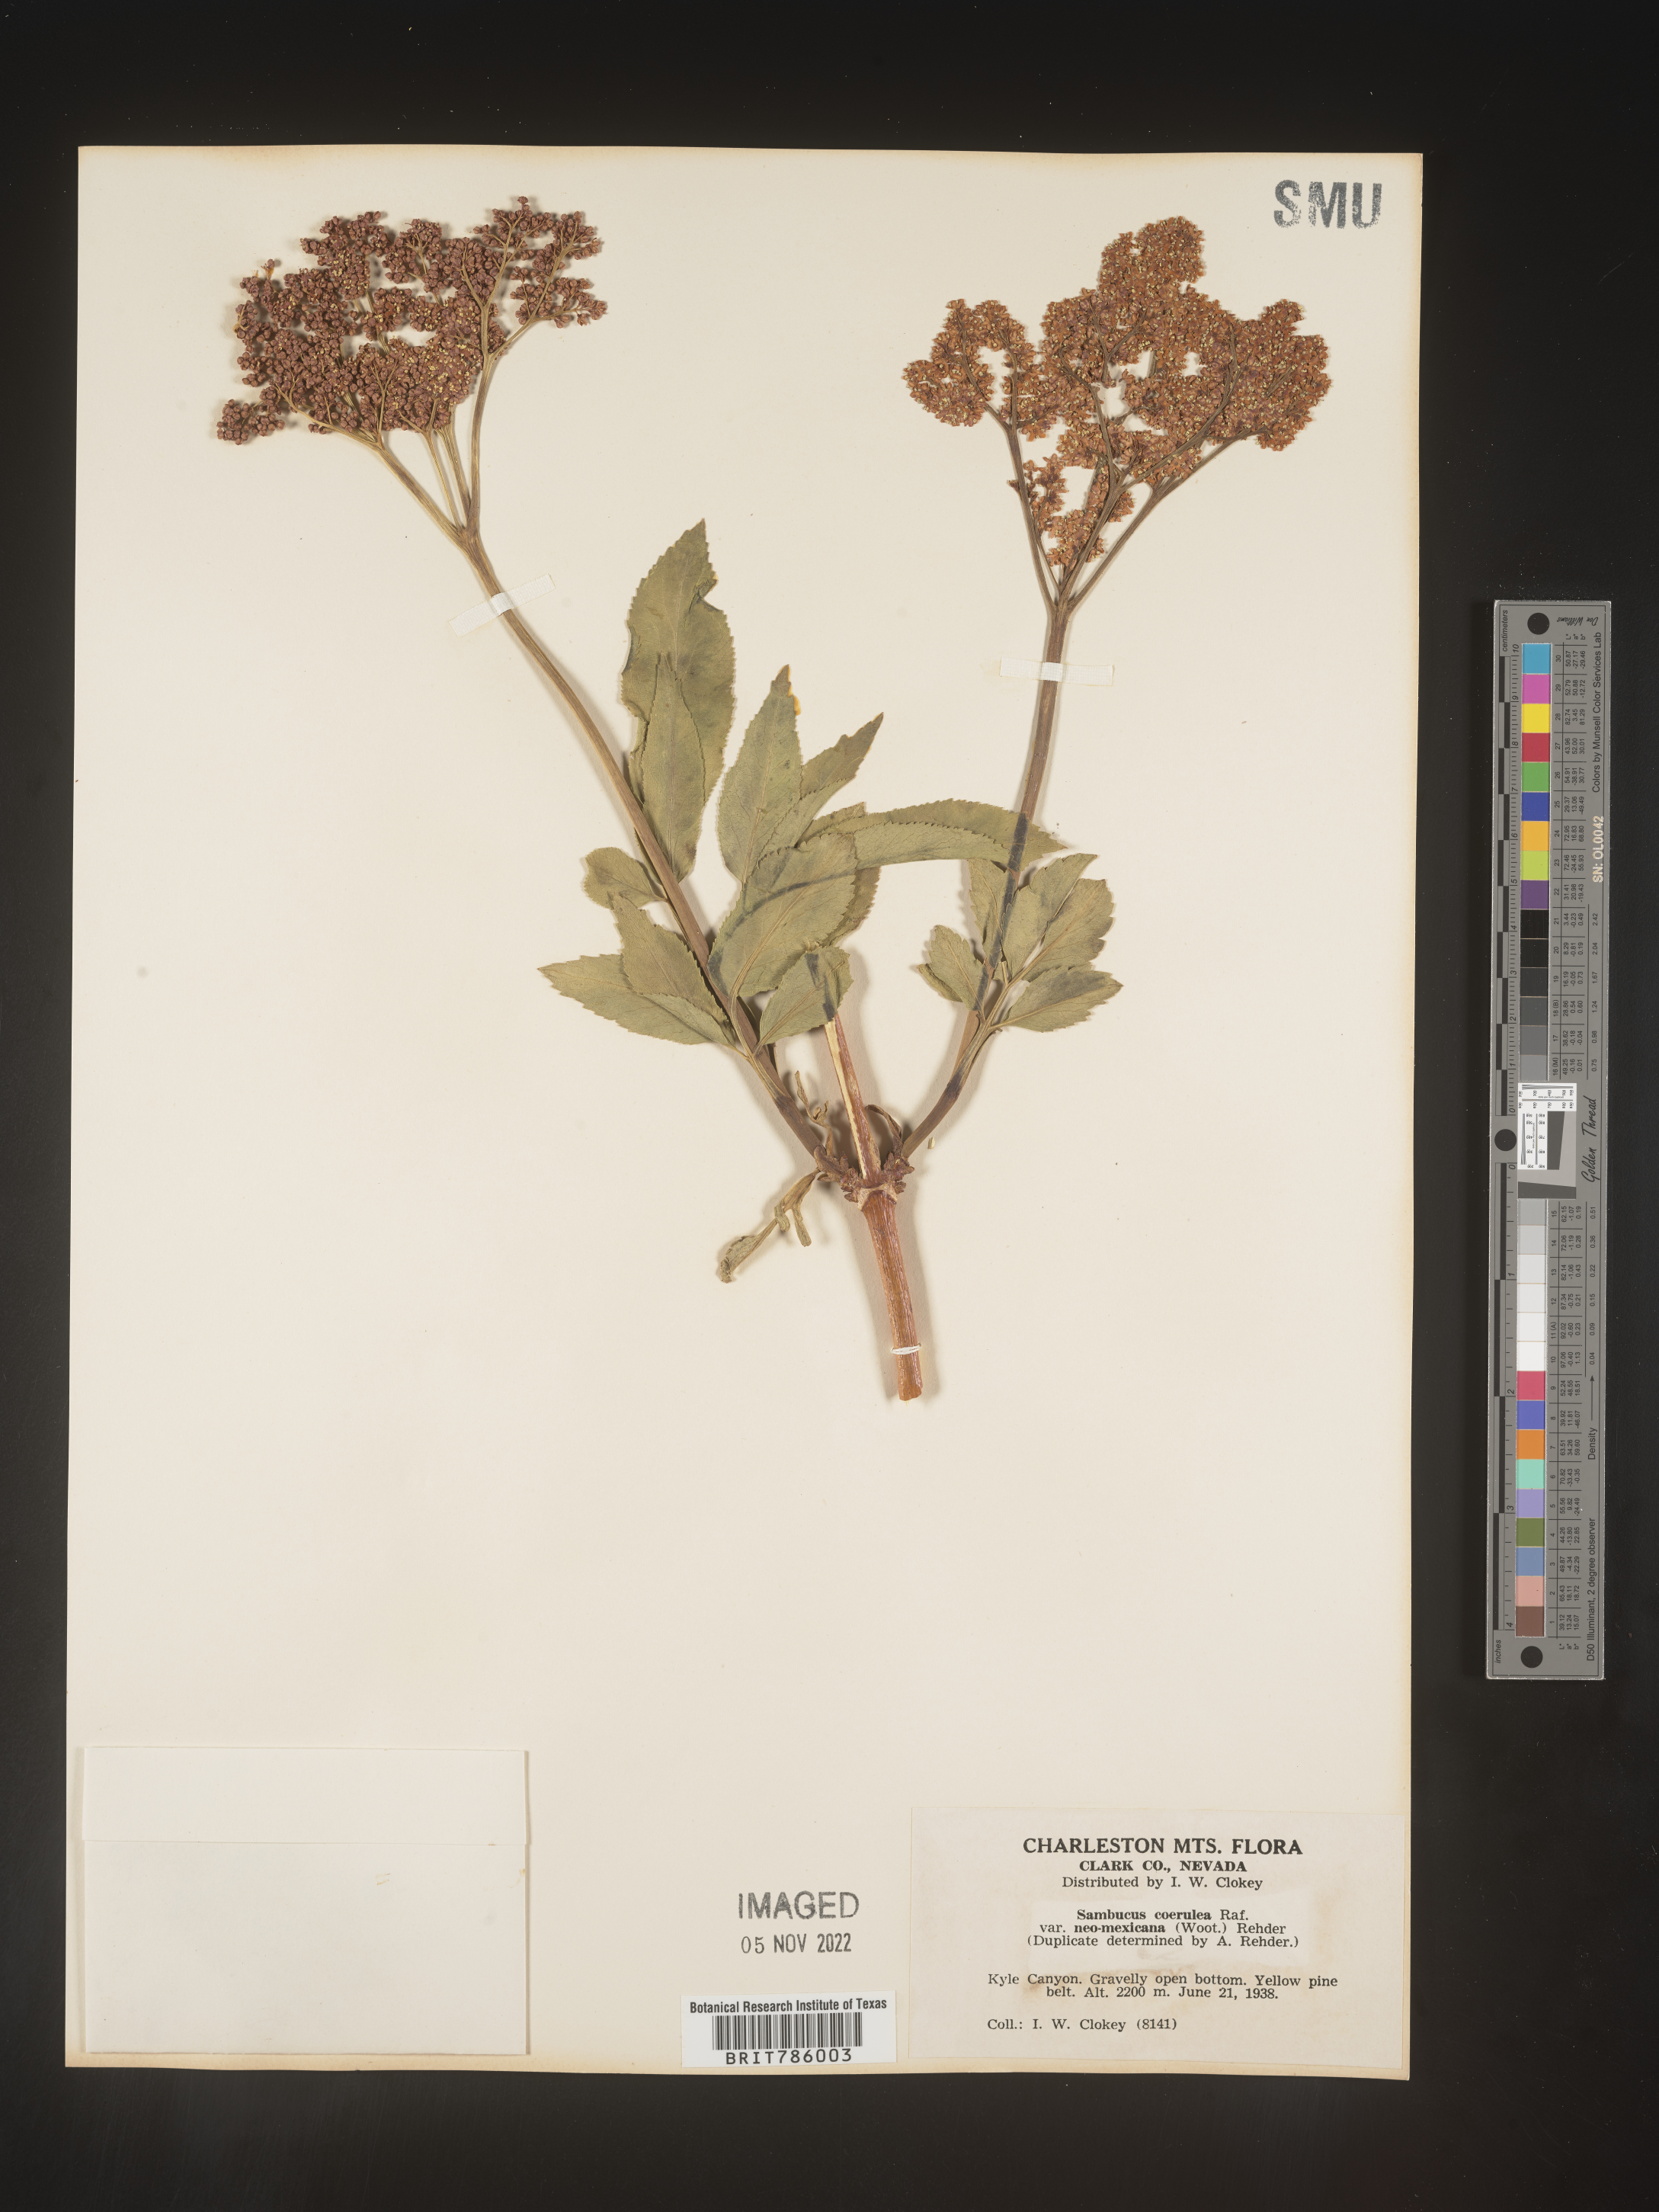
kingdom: Plantae
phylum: Tracheophyta
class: Magnoliopsida
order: Dipsacales
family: Viburnaceae
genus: Sambucus
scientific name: Sambucus caerulea
